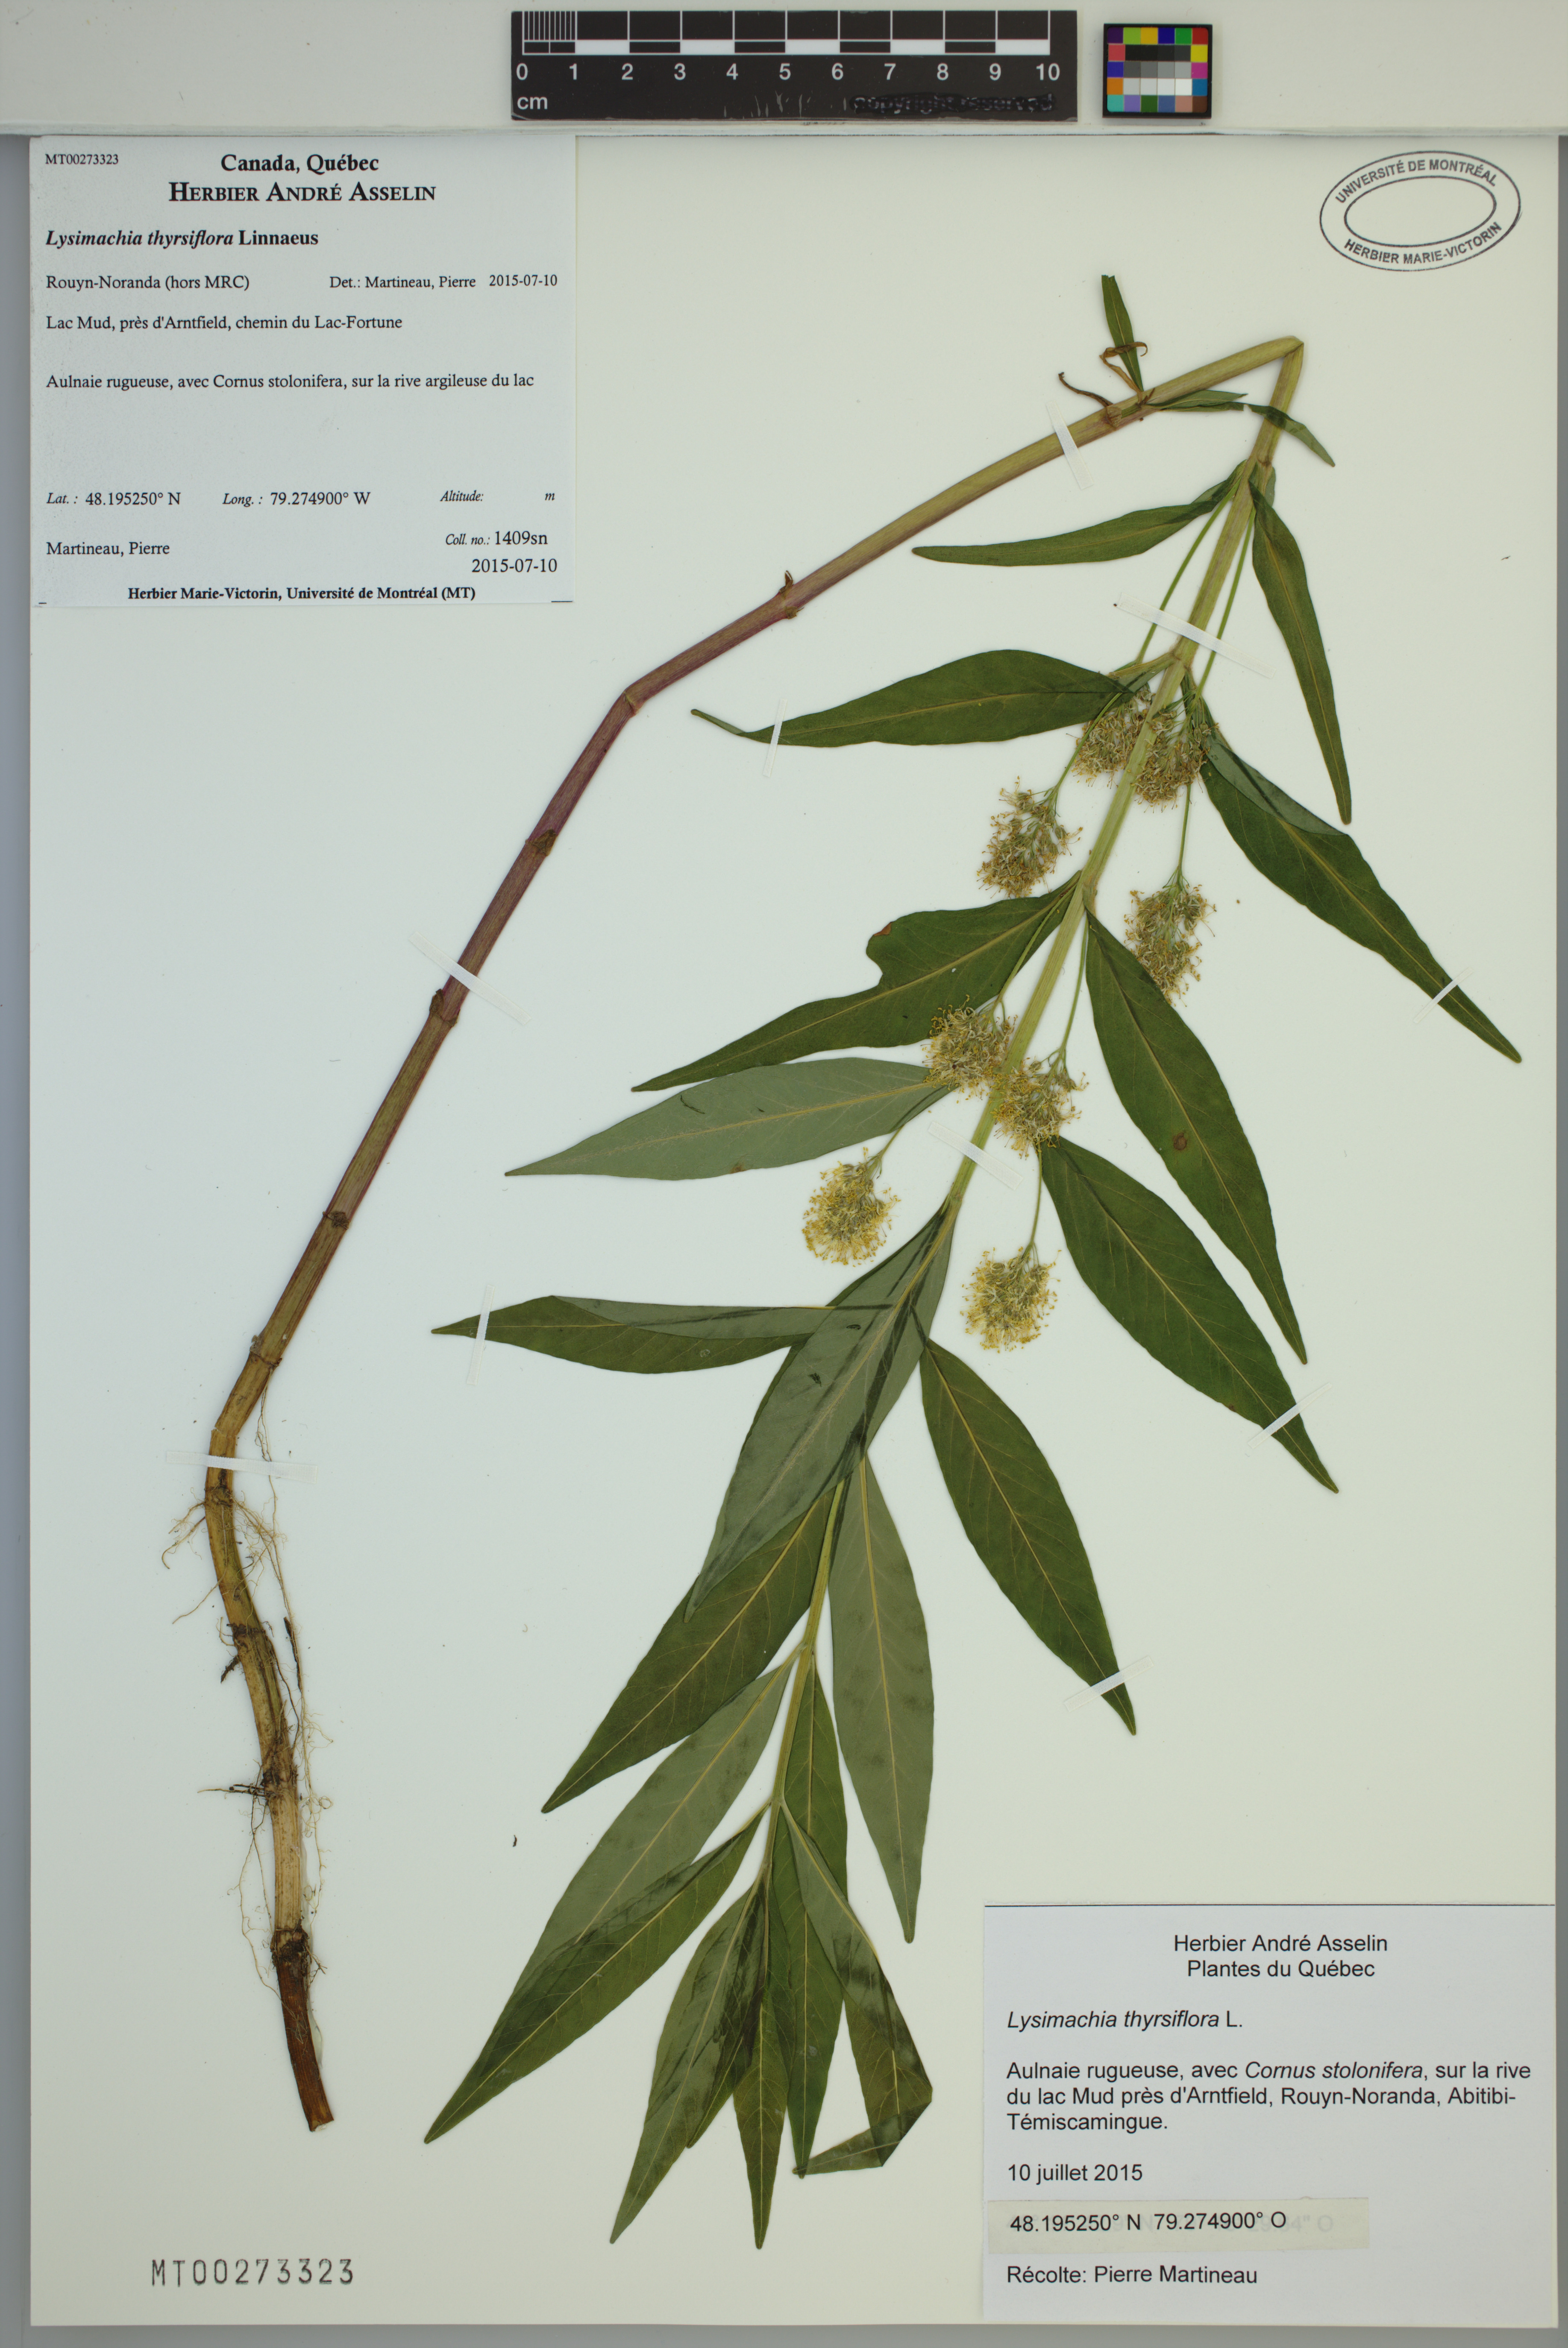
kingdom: Plantae
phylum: Tracheophyta
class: Magnoliopsida
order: Ericales
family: Primulaceae
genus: Lysimachia
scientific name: Lysimachia thyrsiflora
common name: Tufted loosestrife
